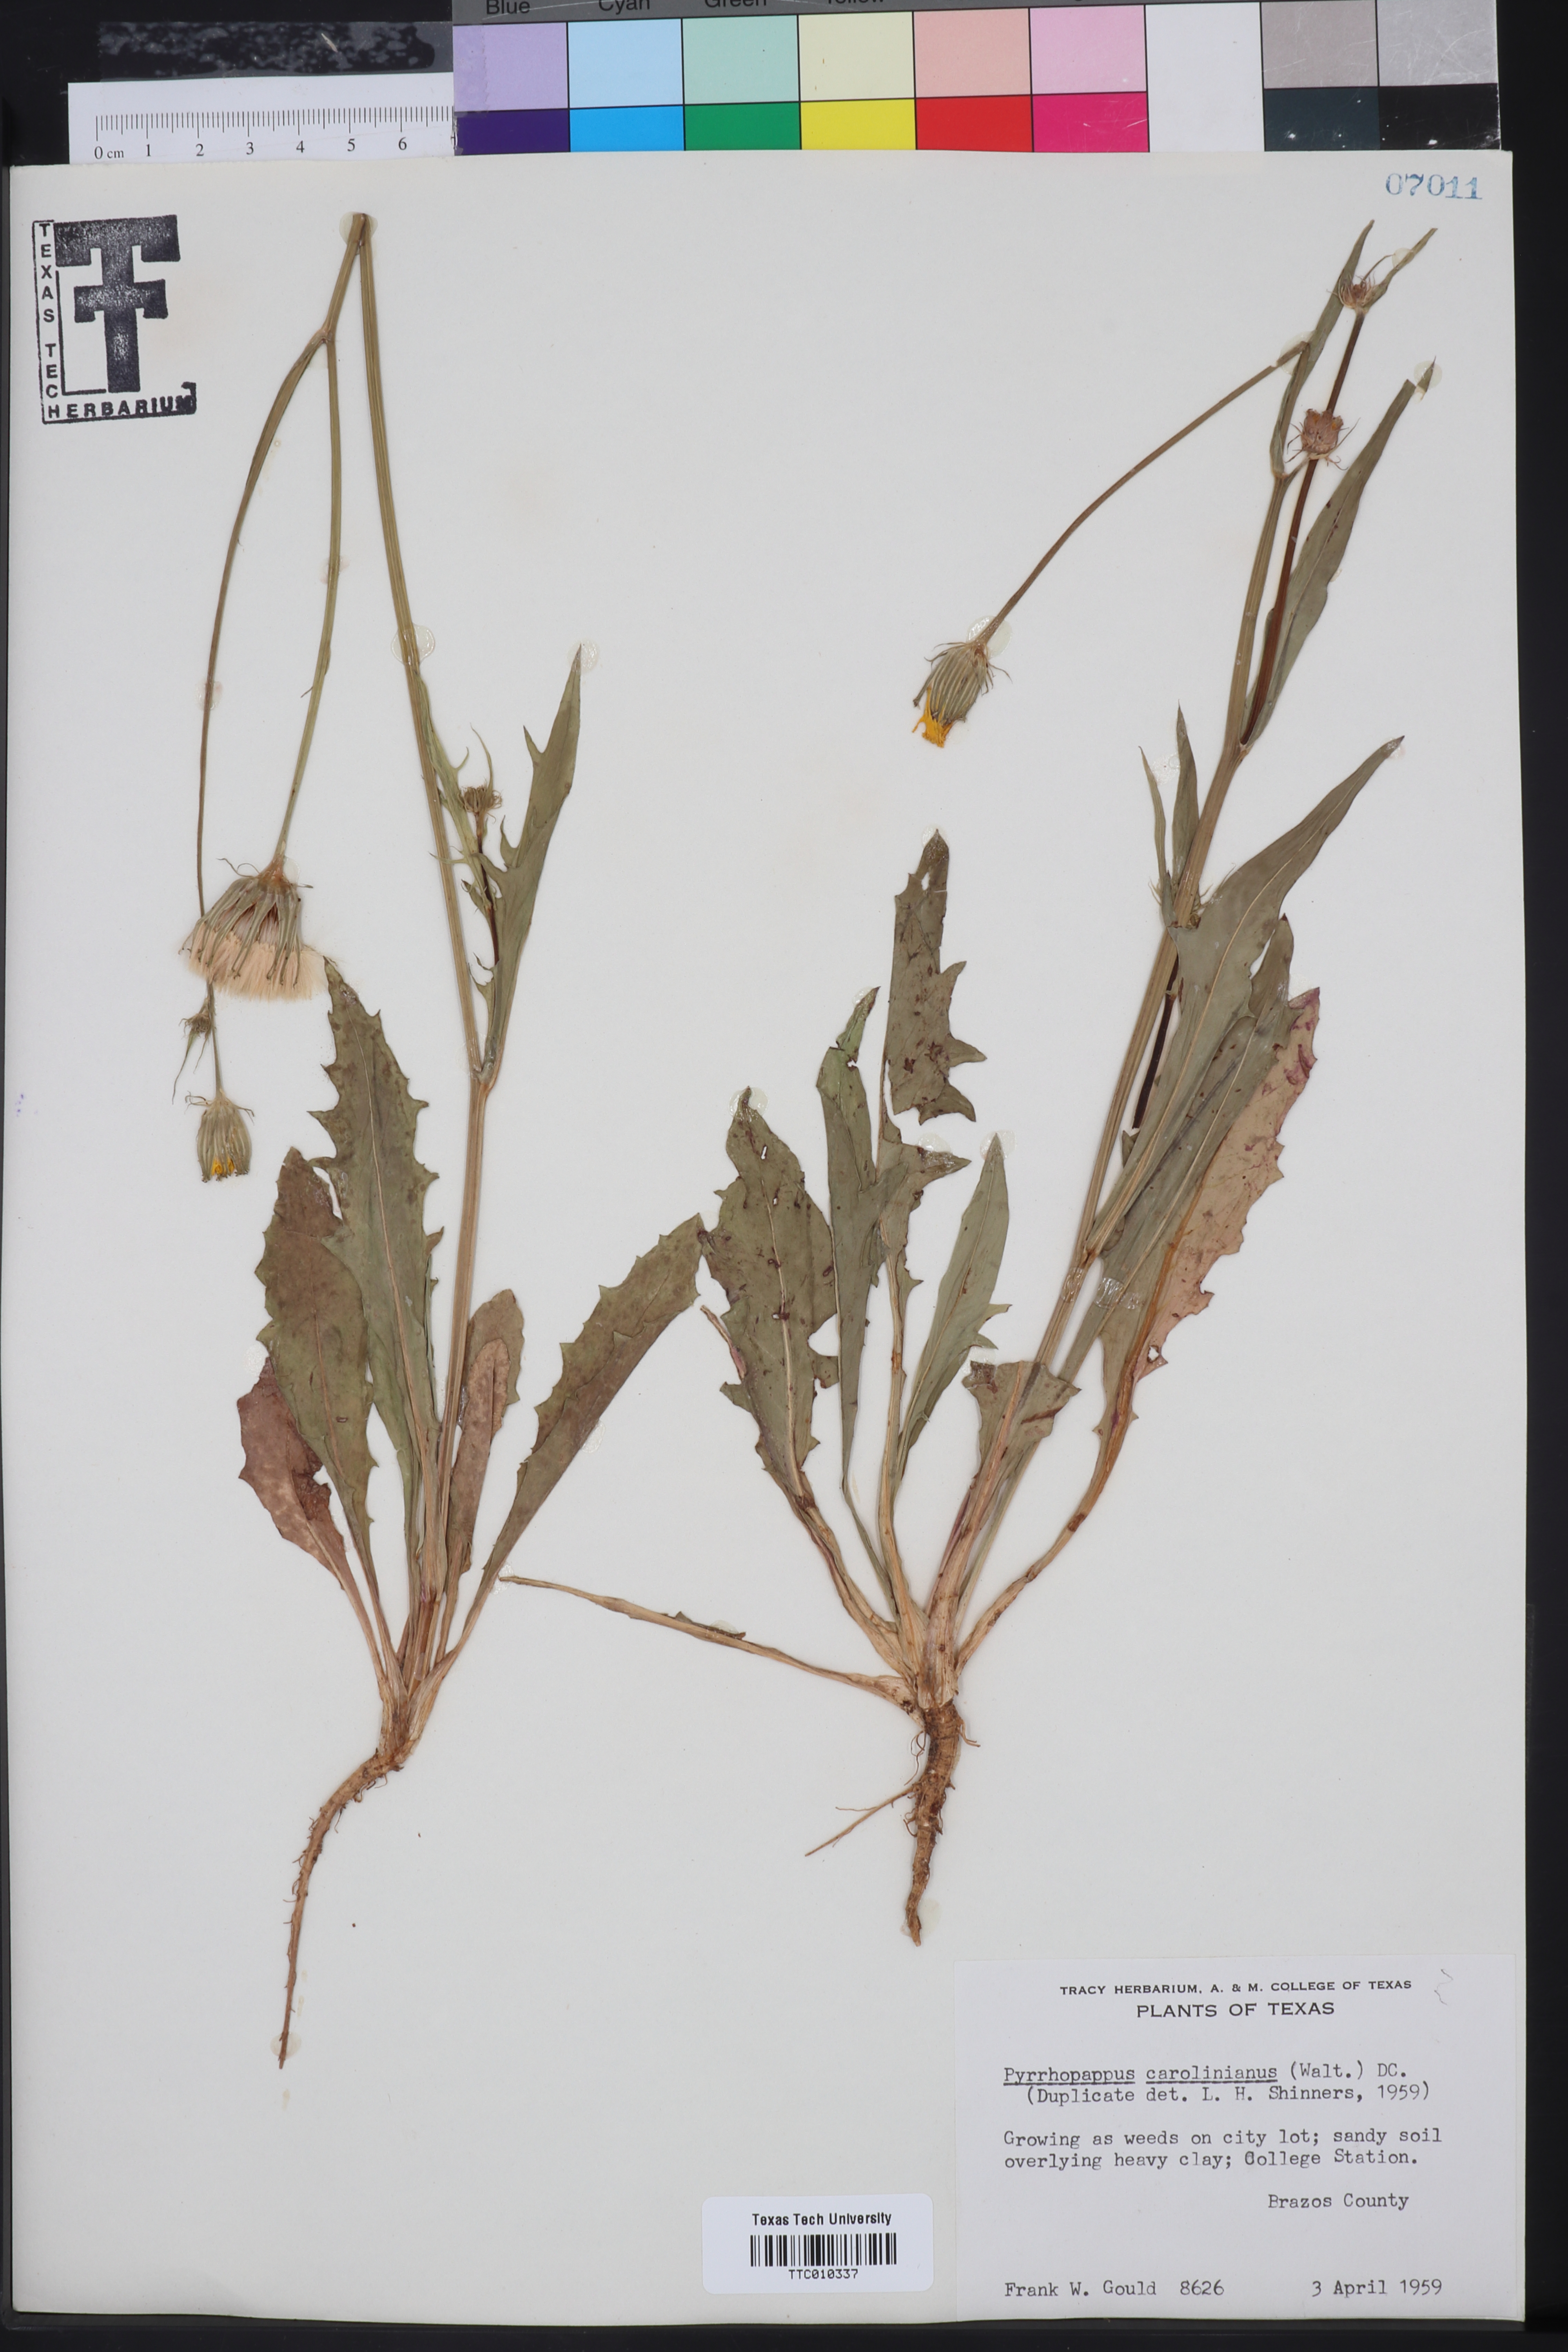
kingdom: Plantae
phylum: Tracheophyta
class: Magnoliopsida
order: Asterales
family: Asteraceae
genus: Pyrrhopappus
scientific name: Pyrrhopappus carolinianus
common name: Carolina desert-chicory
